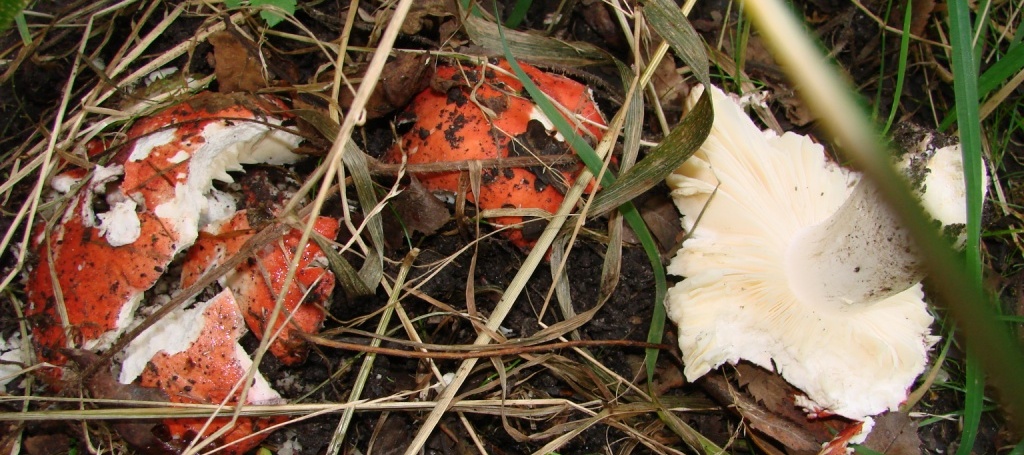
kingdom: Fungi
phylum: Basidiomycota
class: Agaricomycetes
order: Russulales
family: Russulaceae
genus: Russula
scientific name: Russula pseudointegra
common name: cinnoberrød skørhat
